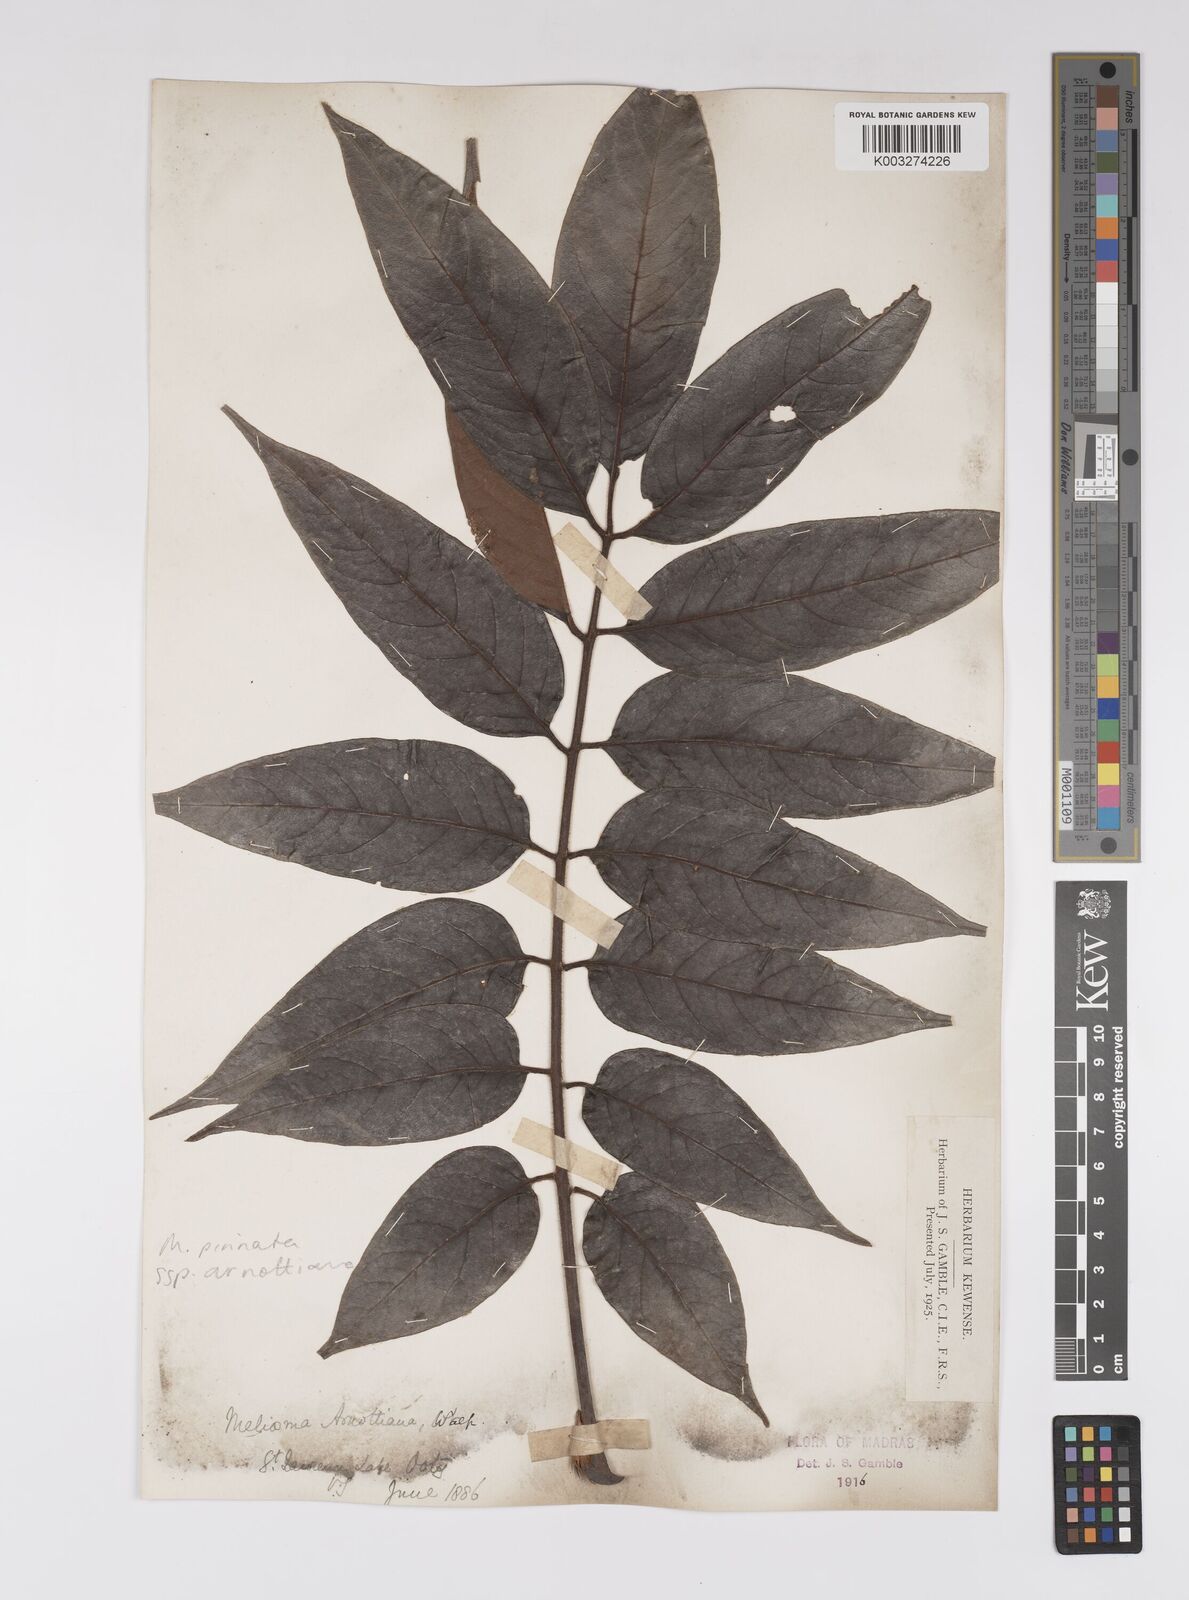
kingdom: Plantae
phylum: Tracheophyta
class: Magnoliopsida
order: Proteales
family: Sabiaceae
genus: Meliosma
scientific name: Meliosma rhoifolia
